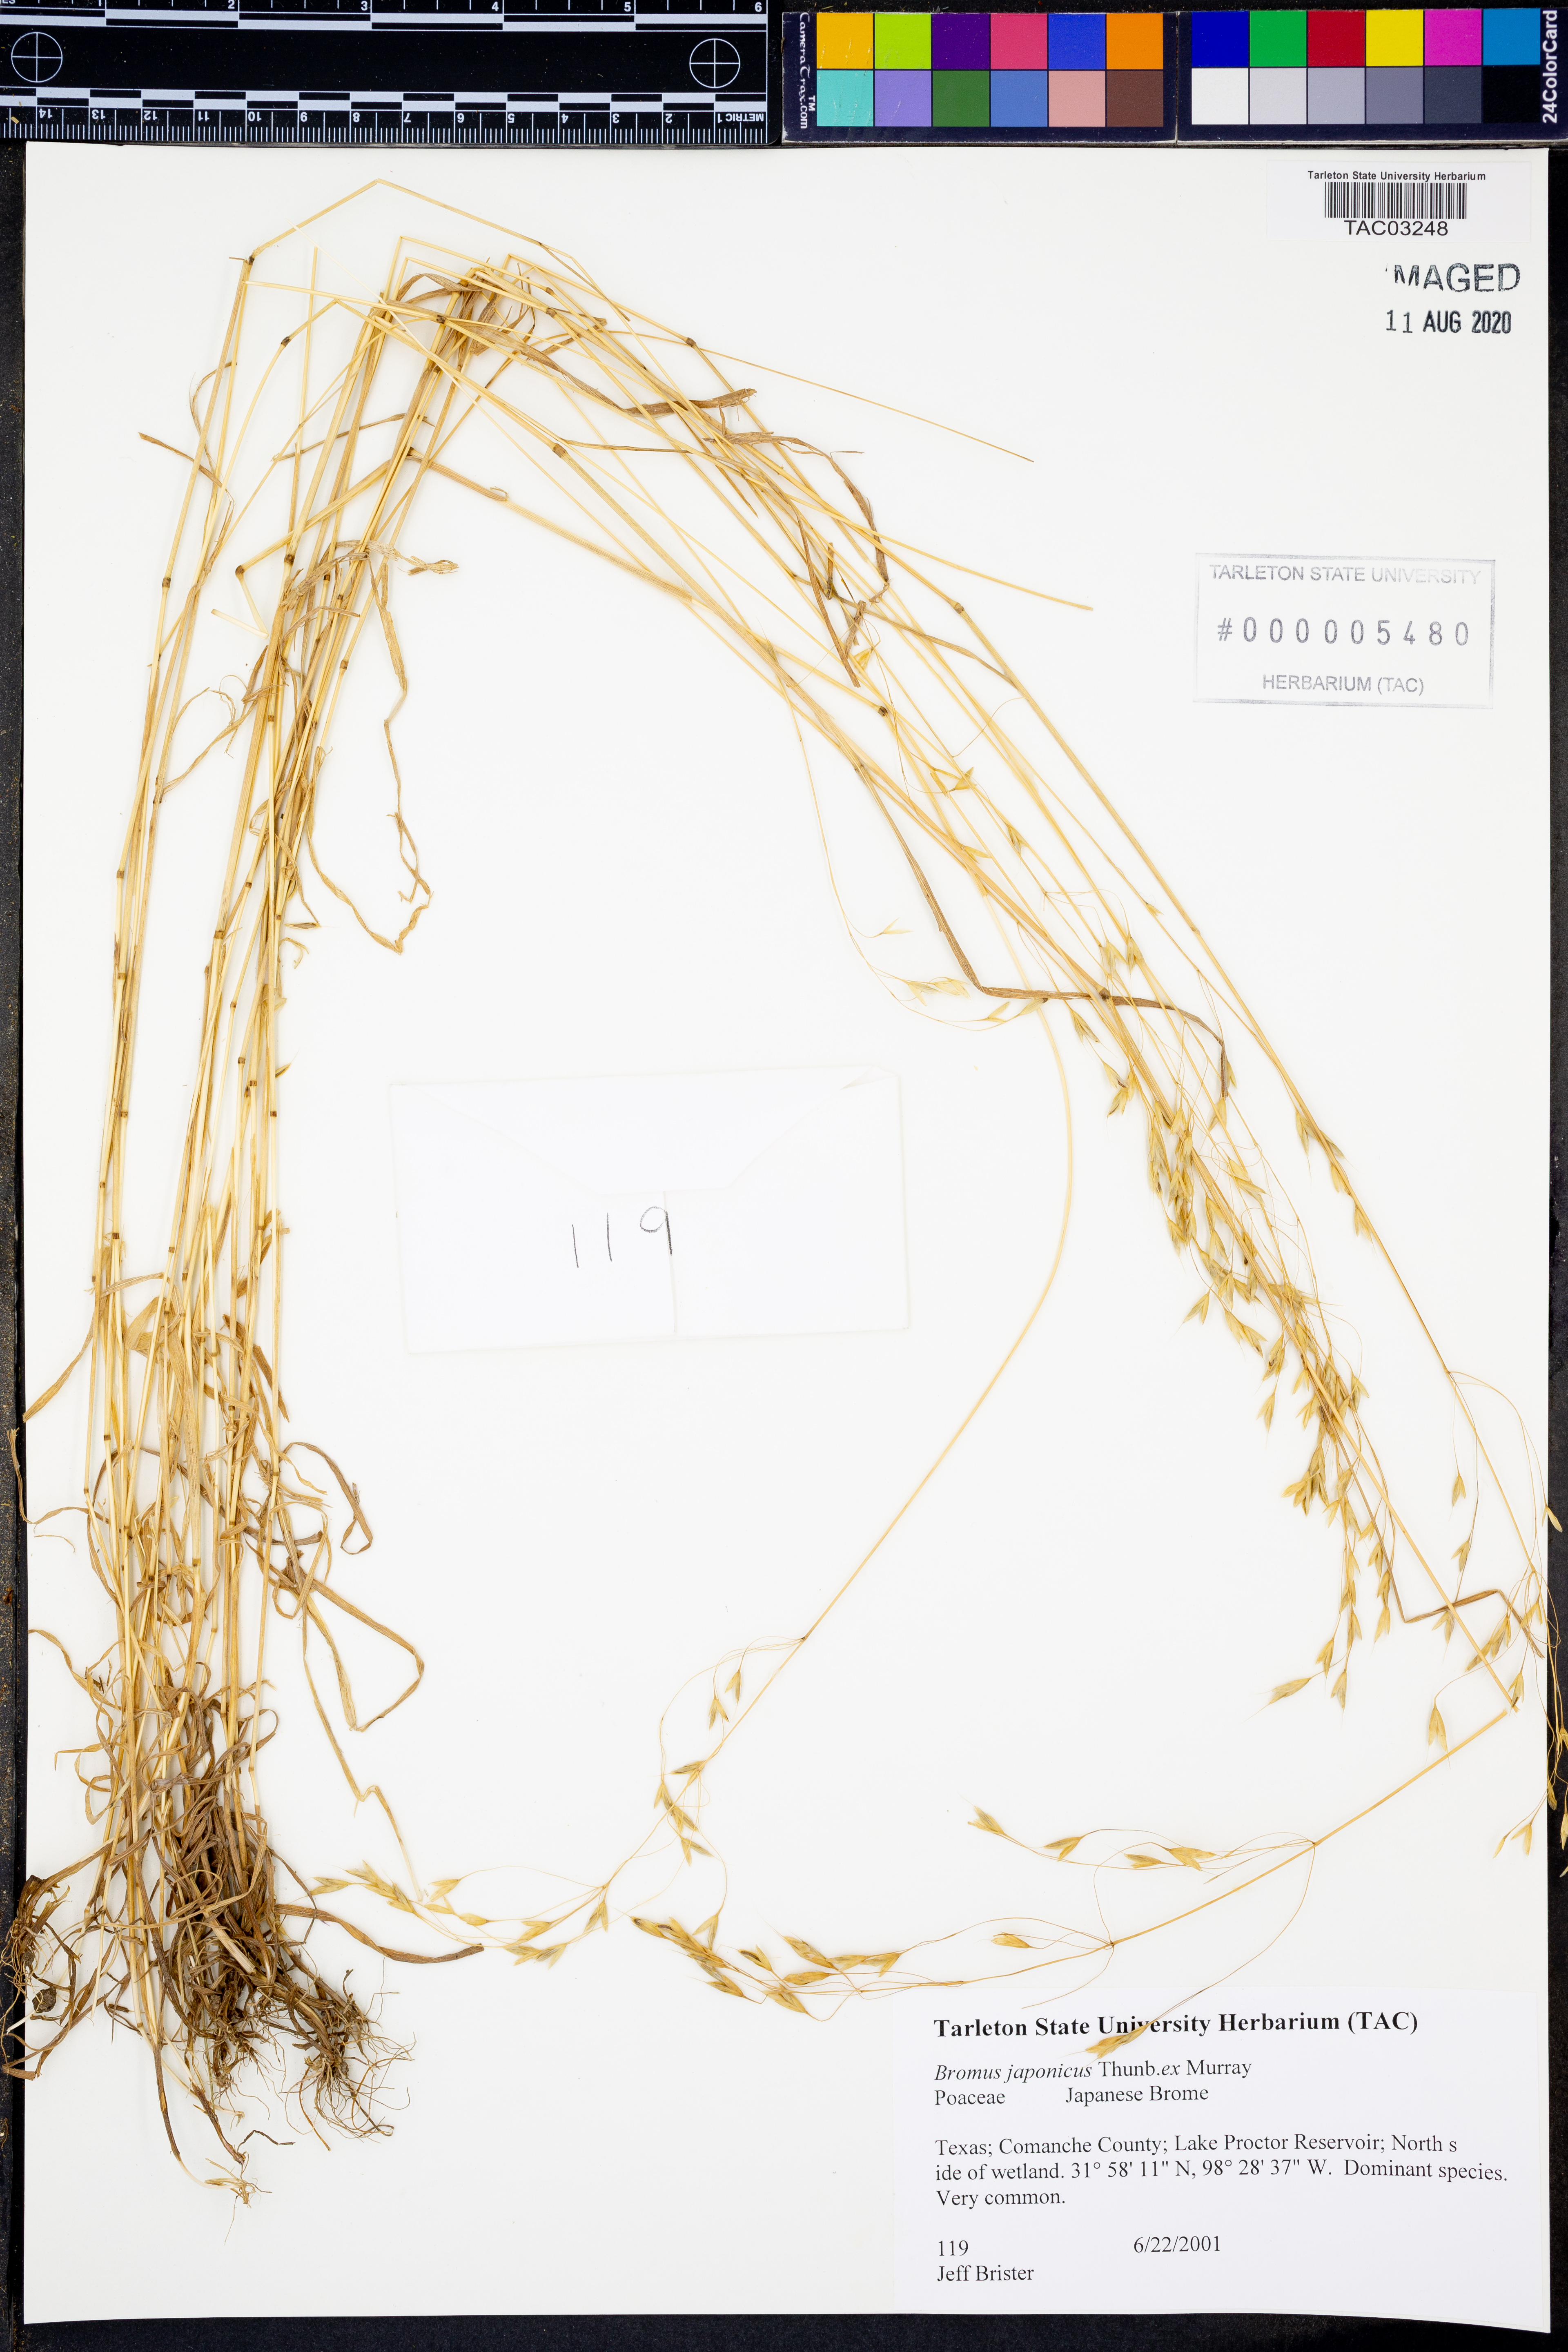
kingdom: Plantae
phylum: Tracheophyta
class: Liliopsida
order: Poales
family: Poaceae
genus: Bromus
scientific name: Bromus japonicus
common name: Japanese brome
